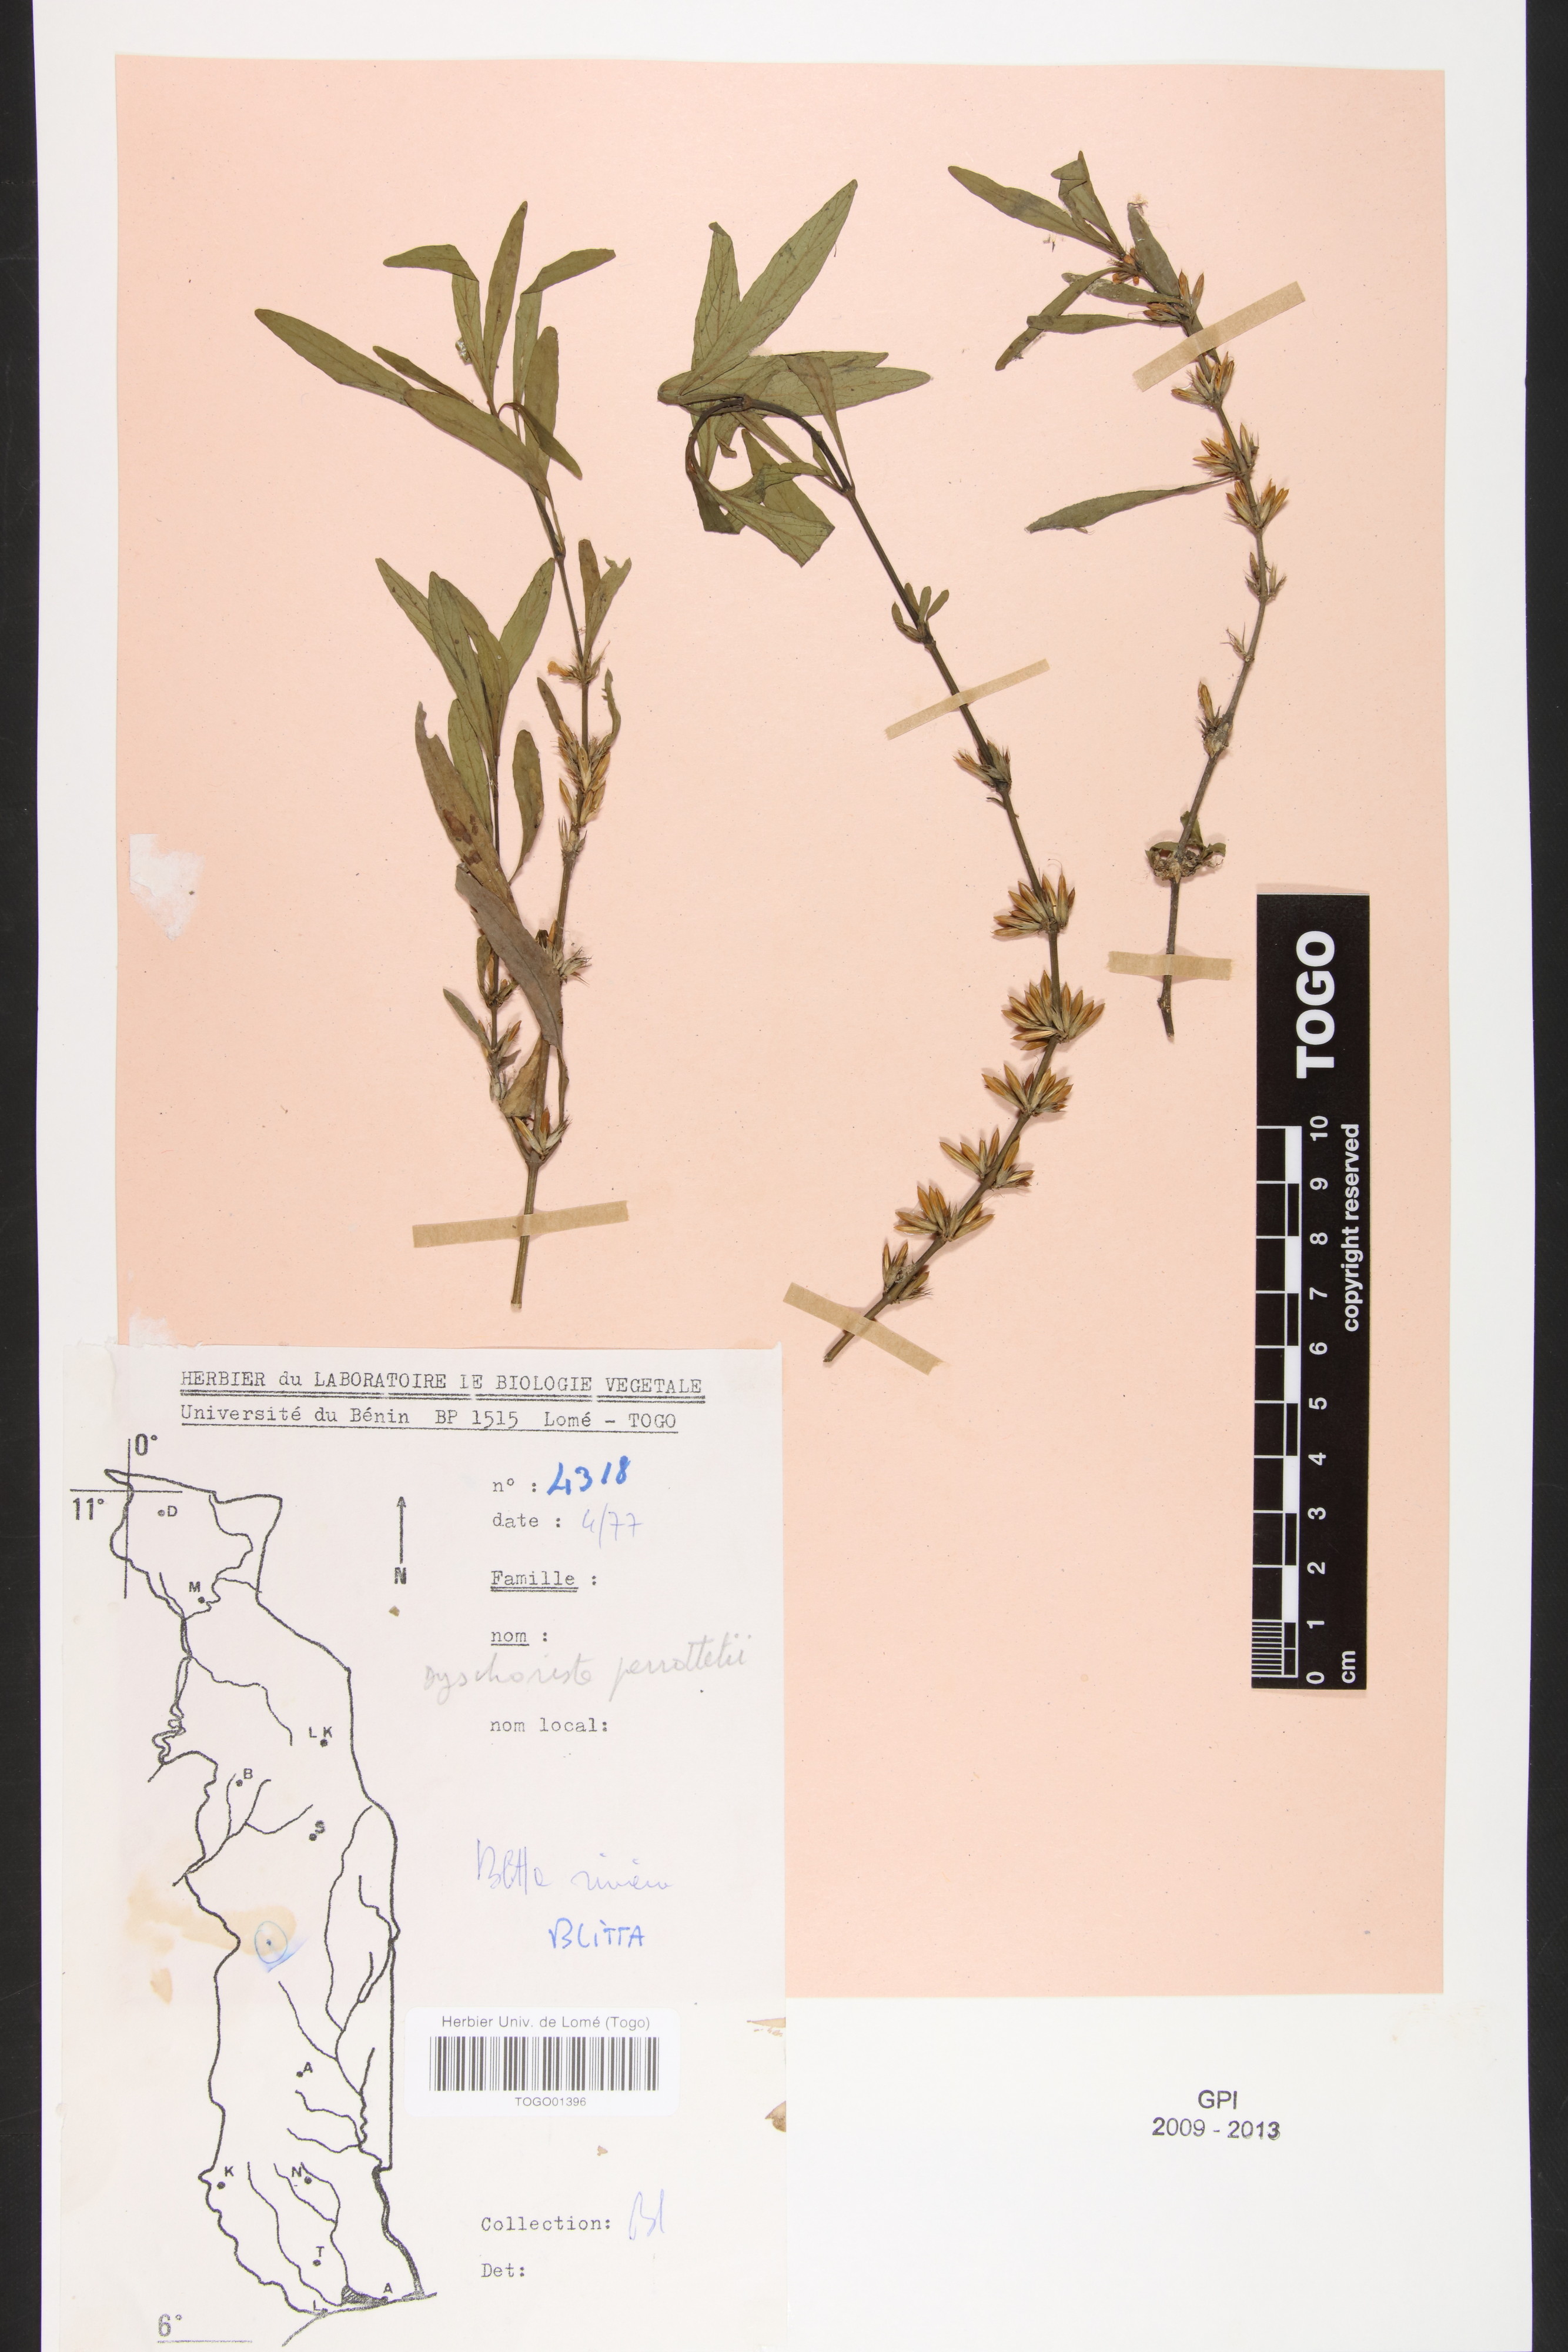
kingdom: Plantae
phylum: Tracheophyta
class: Magnoliopsida
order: Lamiales
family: Acanthaceae
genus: Dyschoriste
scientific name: Dyschoriste nagchana
